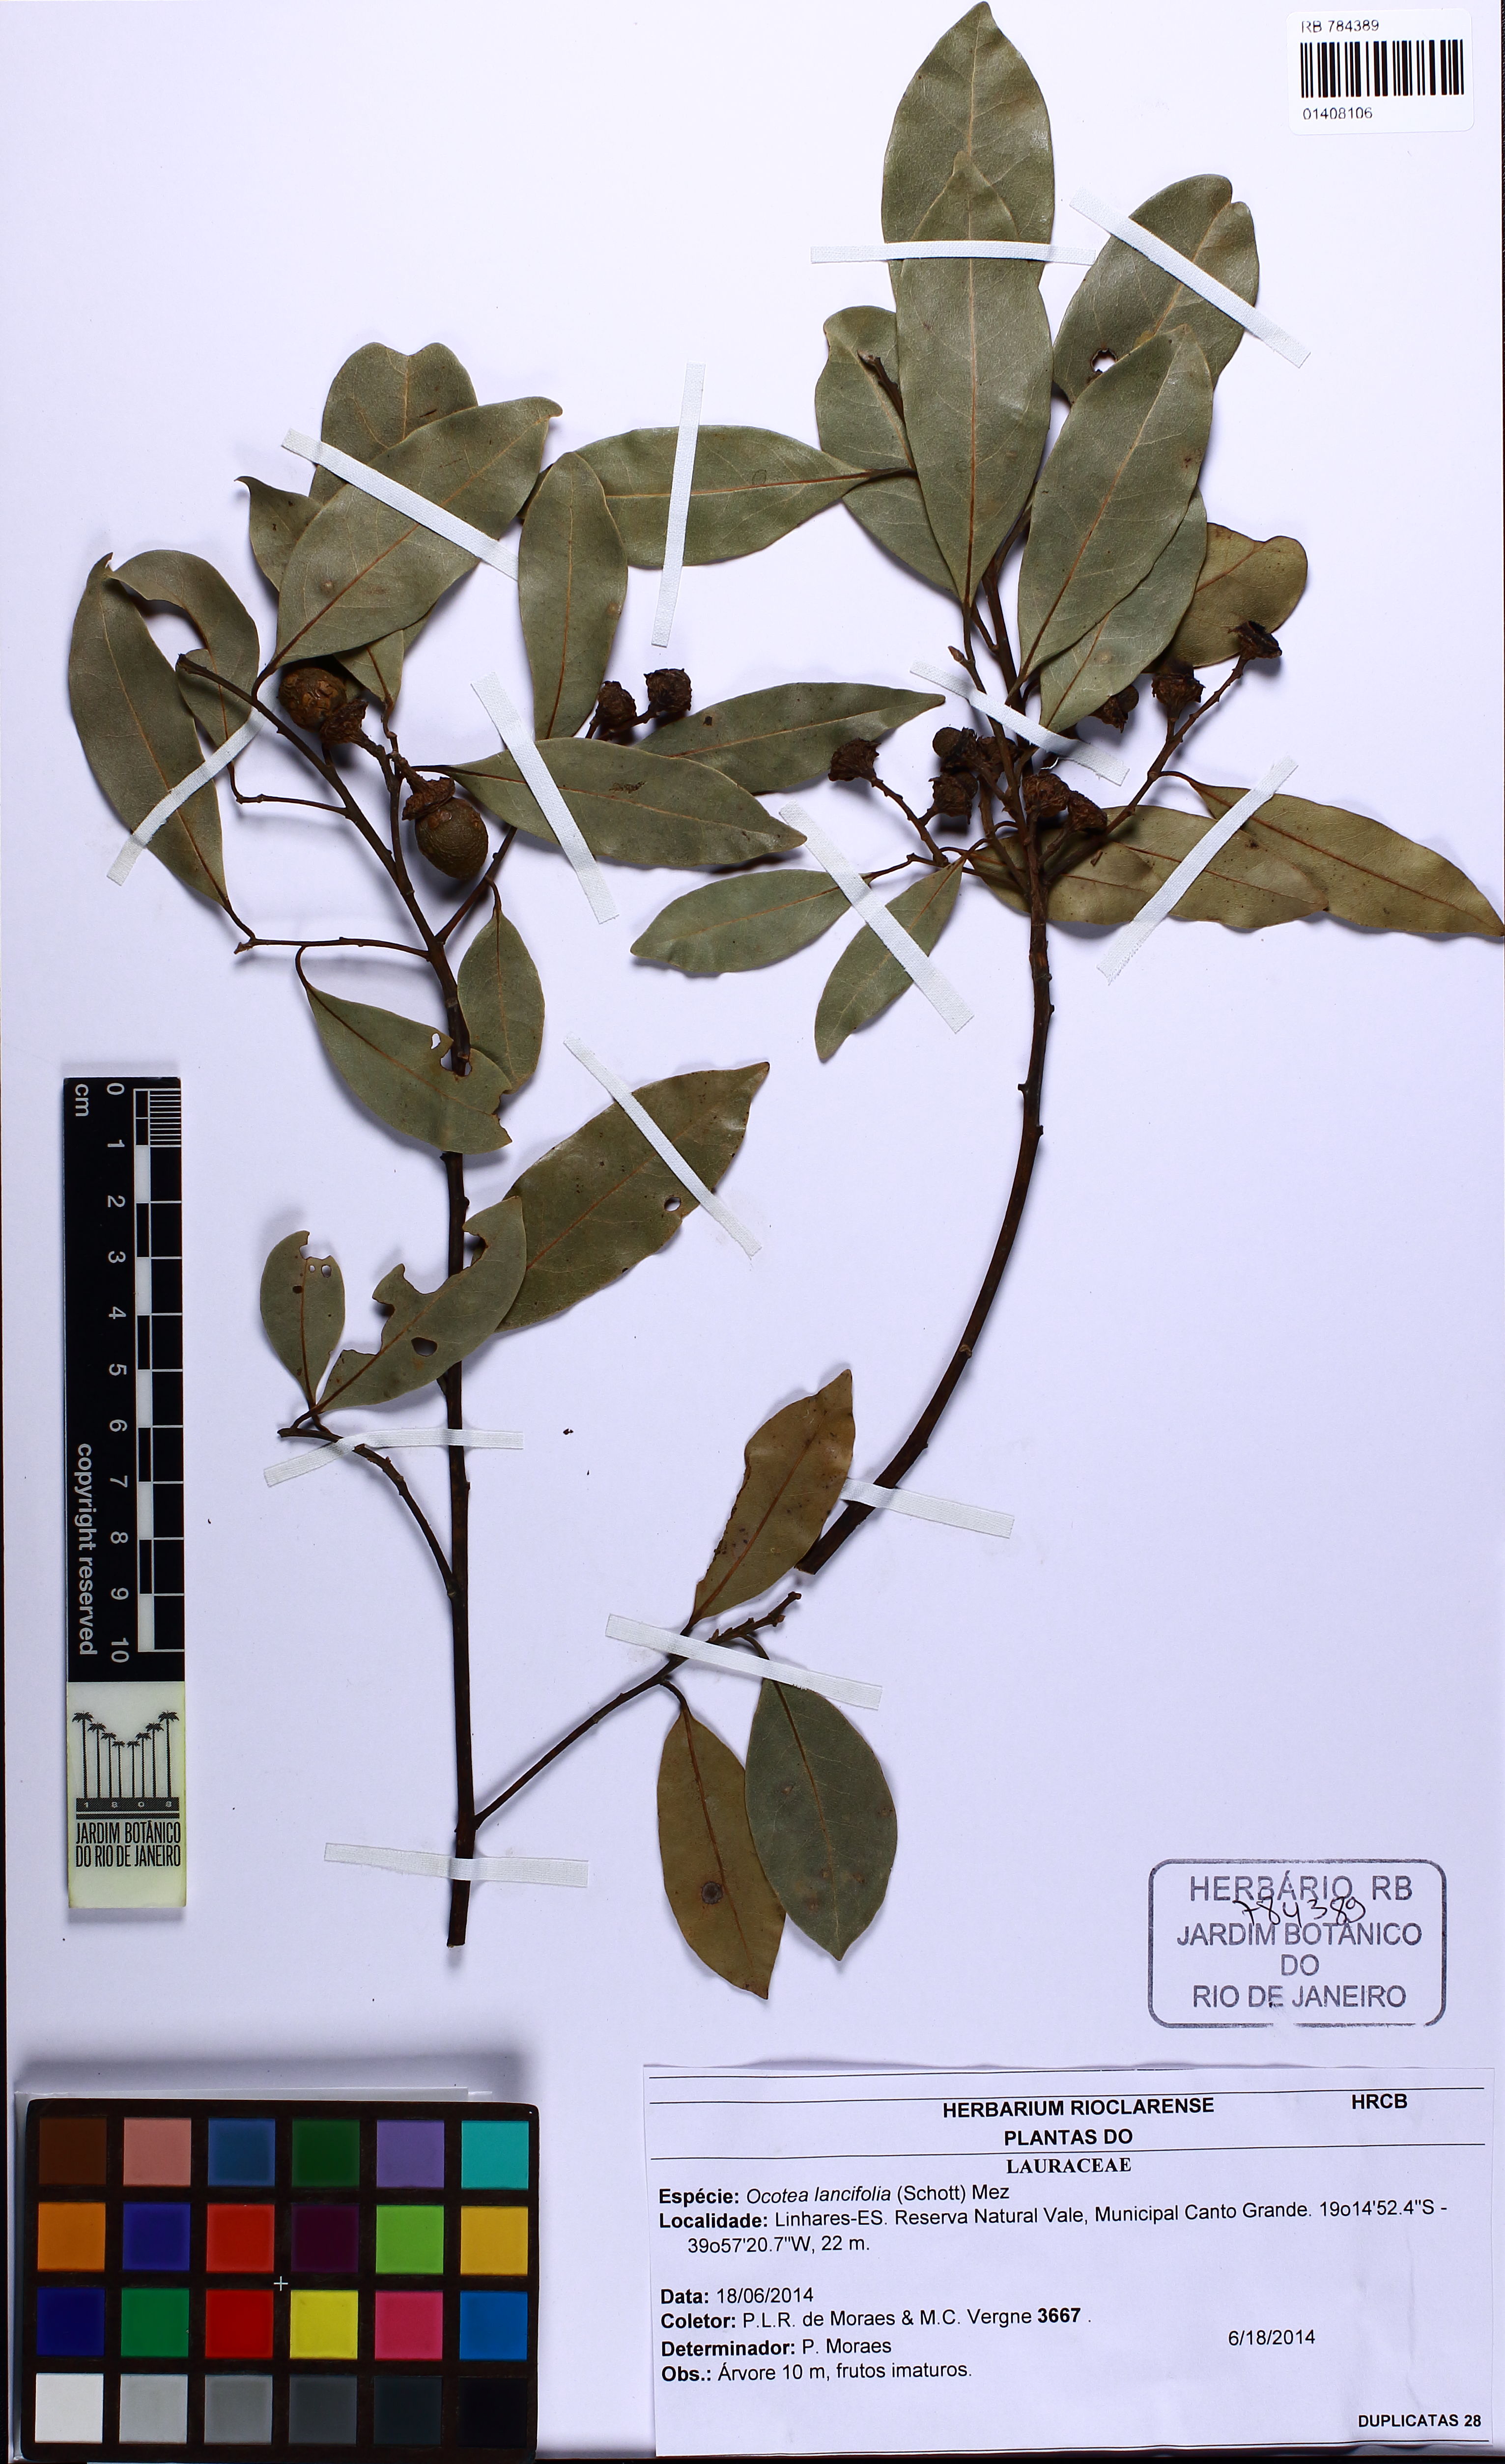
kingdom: Plantae
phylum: Tracheophyta
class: Magnoliopsida
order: Laurales
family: Lauraceae
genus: Ocotea
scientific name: Ocotea lancifolia
